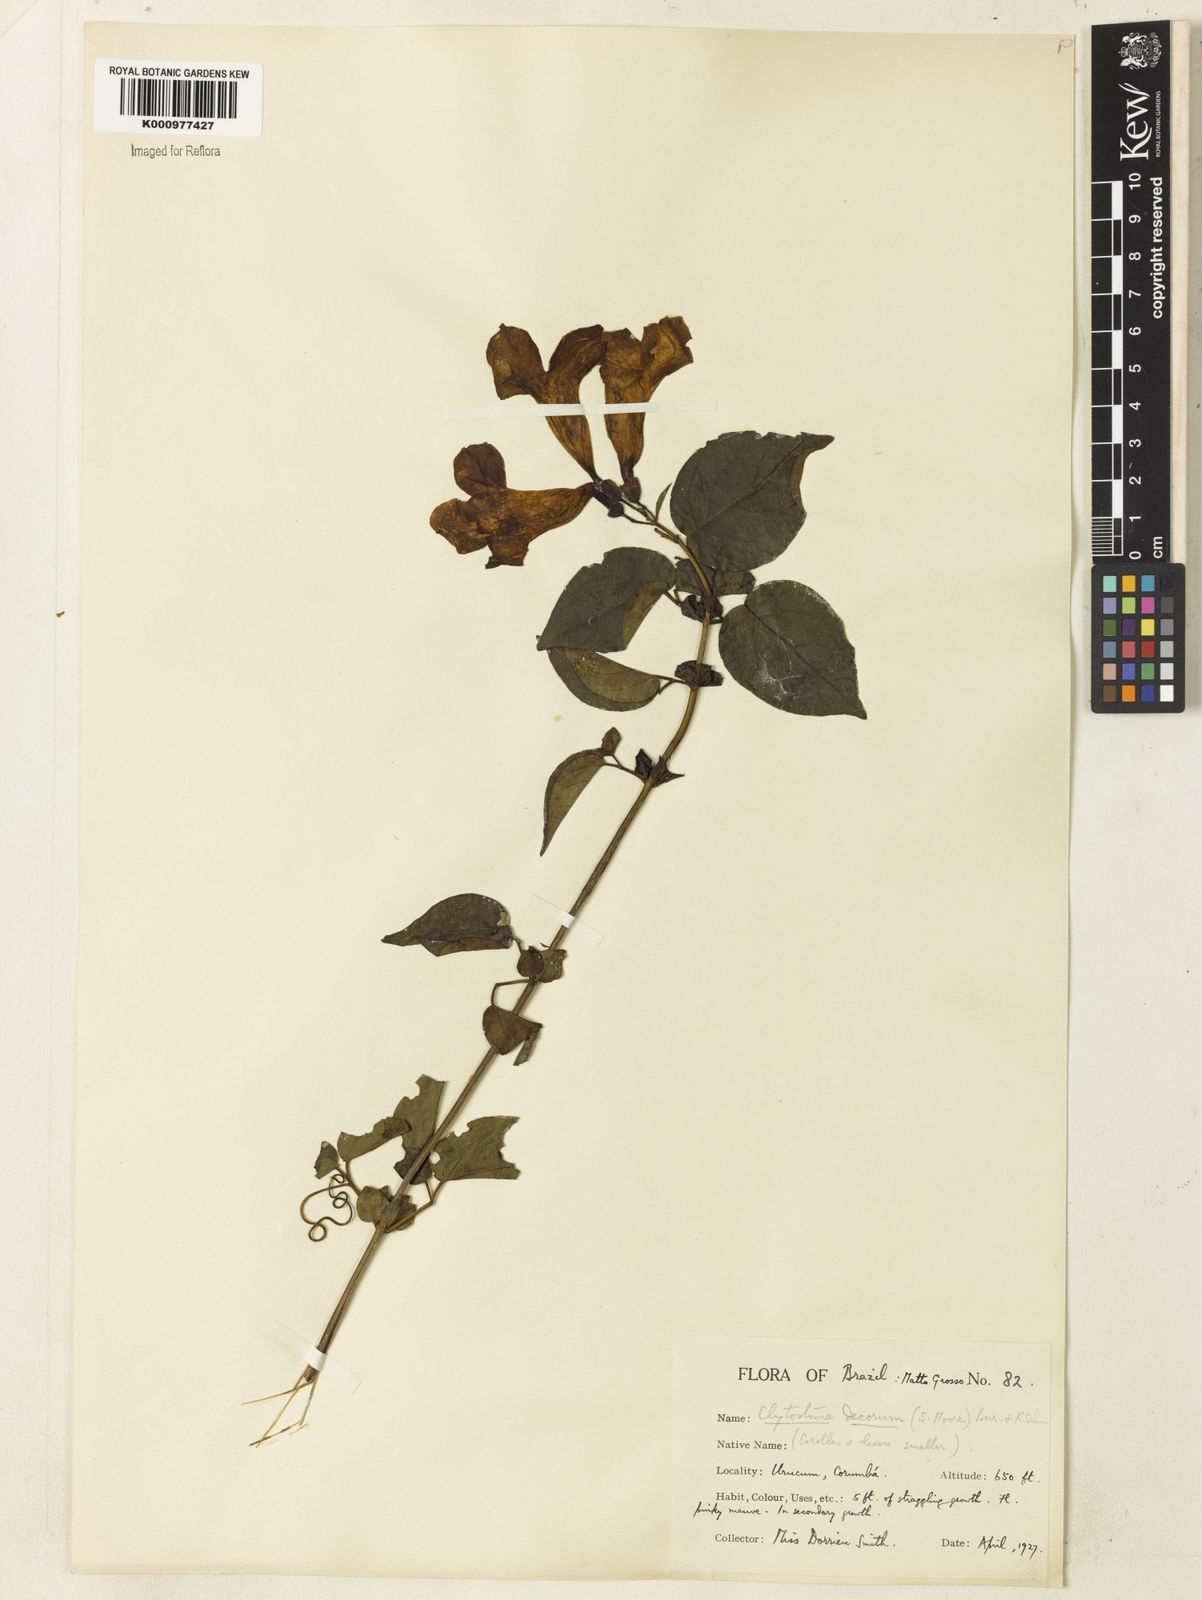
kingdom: Plantae
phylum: Tracheophyta
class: Magnoliopsida
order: Lamiales
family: Bignoniaceae
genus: Bignonia
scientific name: Bignonia decora
